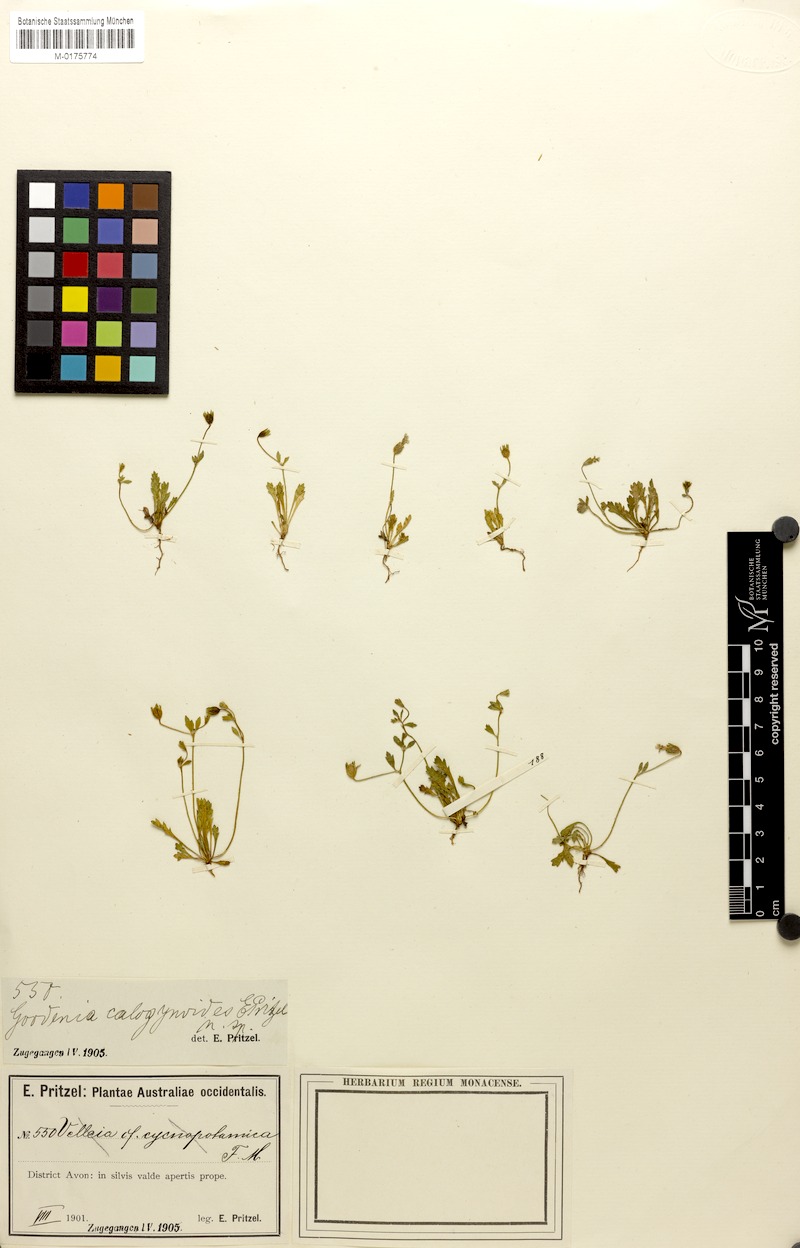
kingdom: Plantae
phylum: Tracheophyta
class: Magnoliopsida
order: Asterales
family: Goodeniaceae
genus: Goodenia
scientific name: Goodenia pusilliflora
